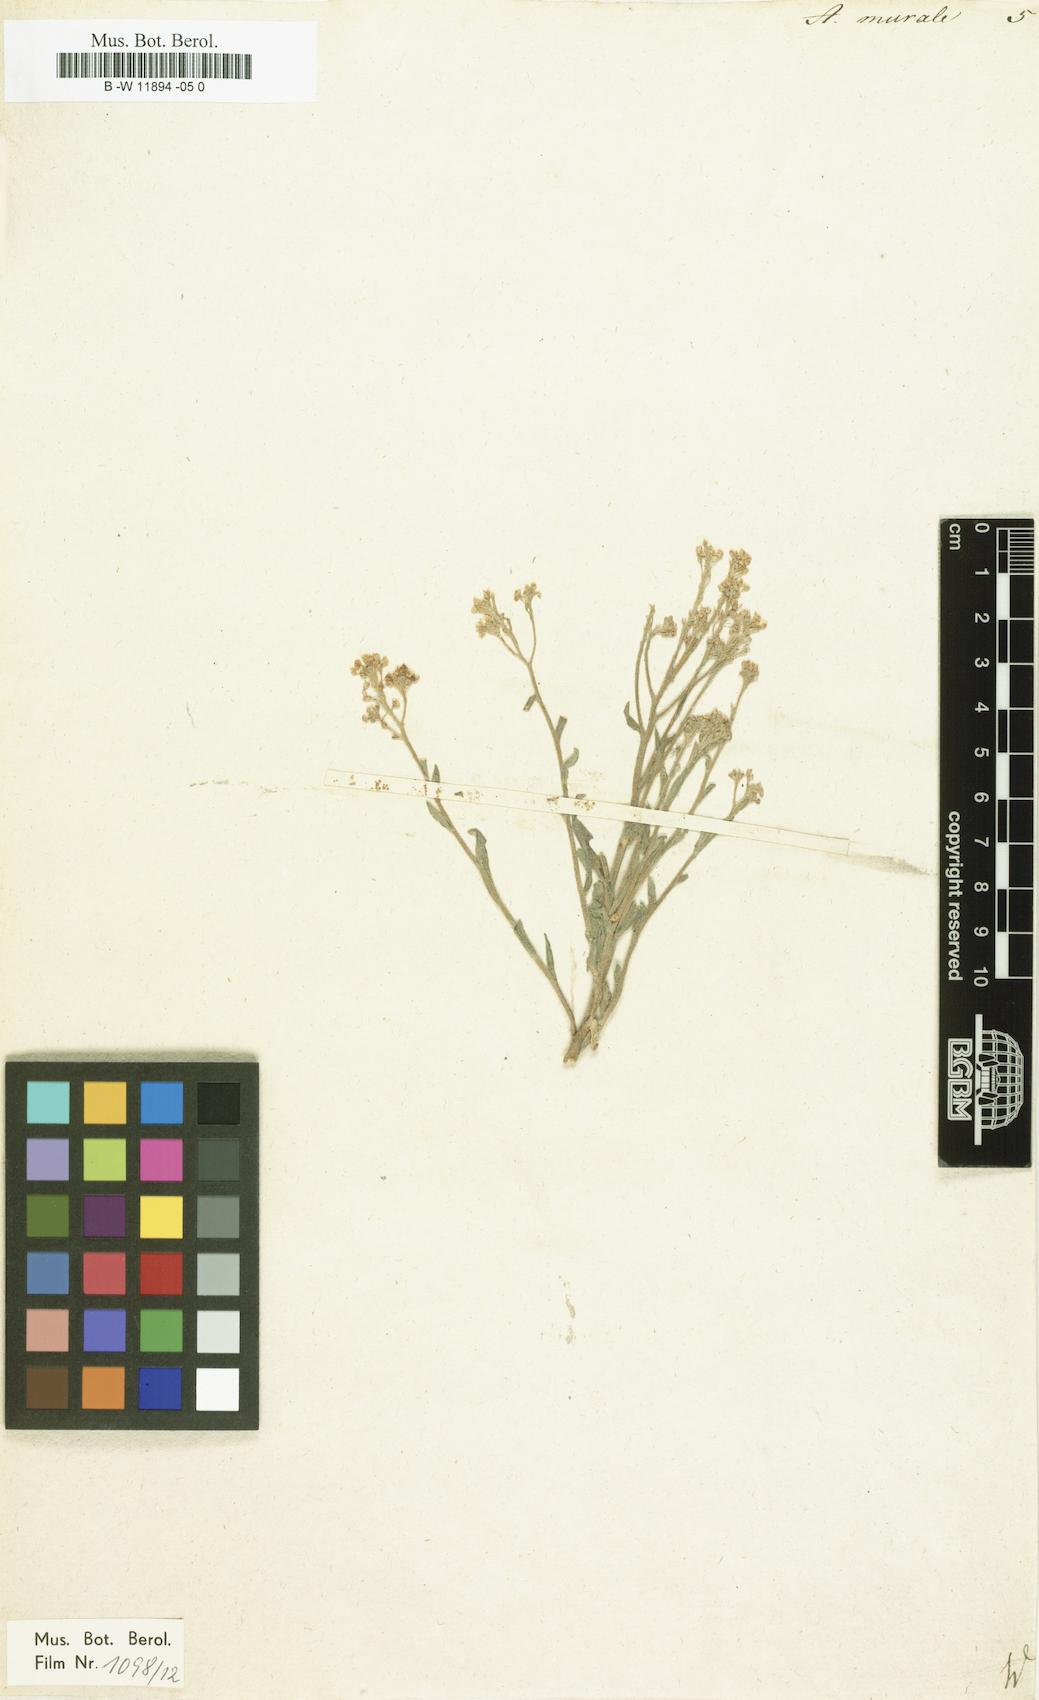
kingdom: Plantae
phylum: Tracheophyta
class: Magnoliopsida
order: Brassicales
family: Brassicaceae
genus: Odontarrhena
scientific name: Odontarrhena muralis
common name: Rock alyssum
